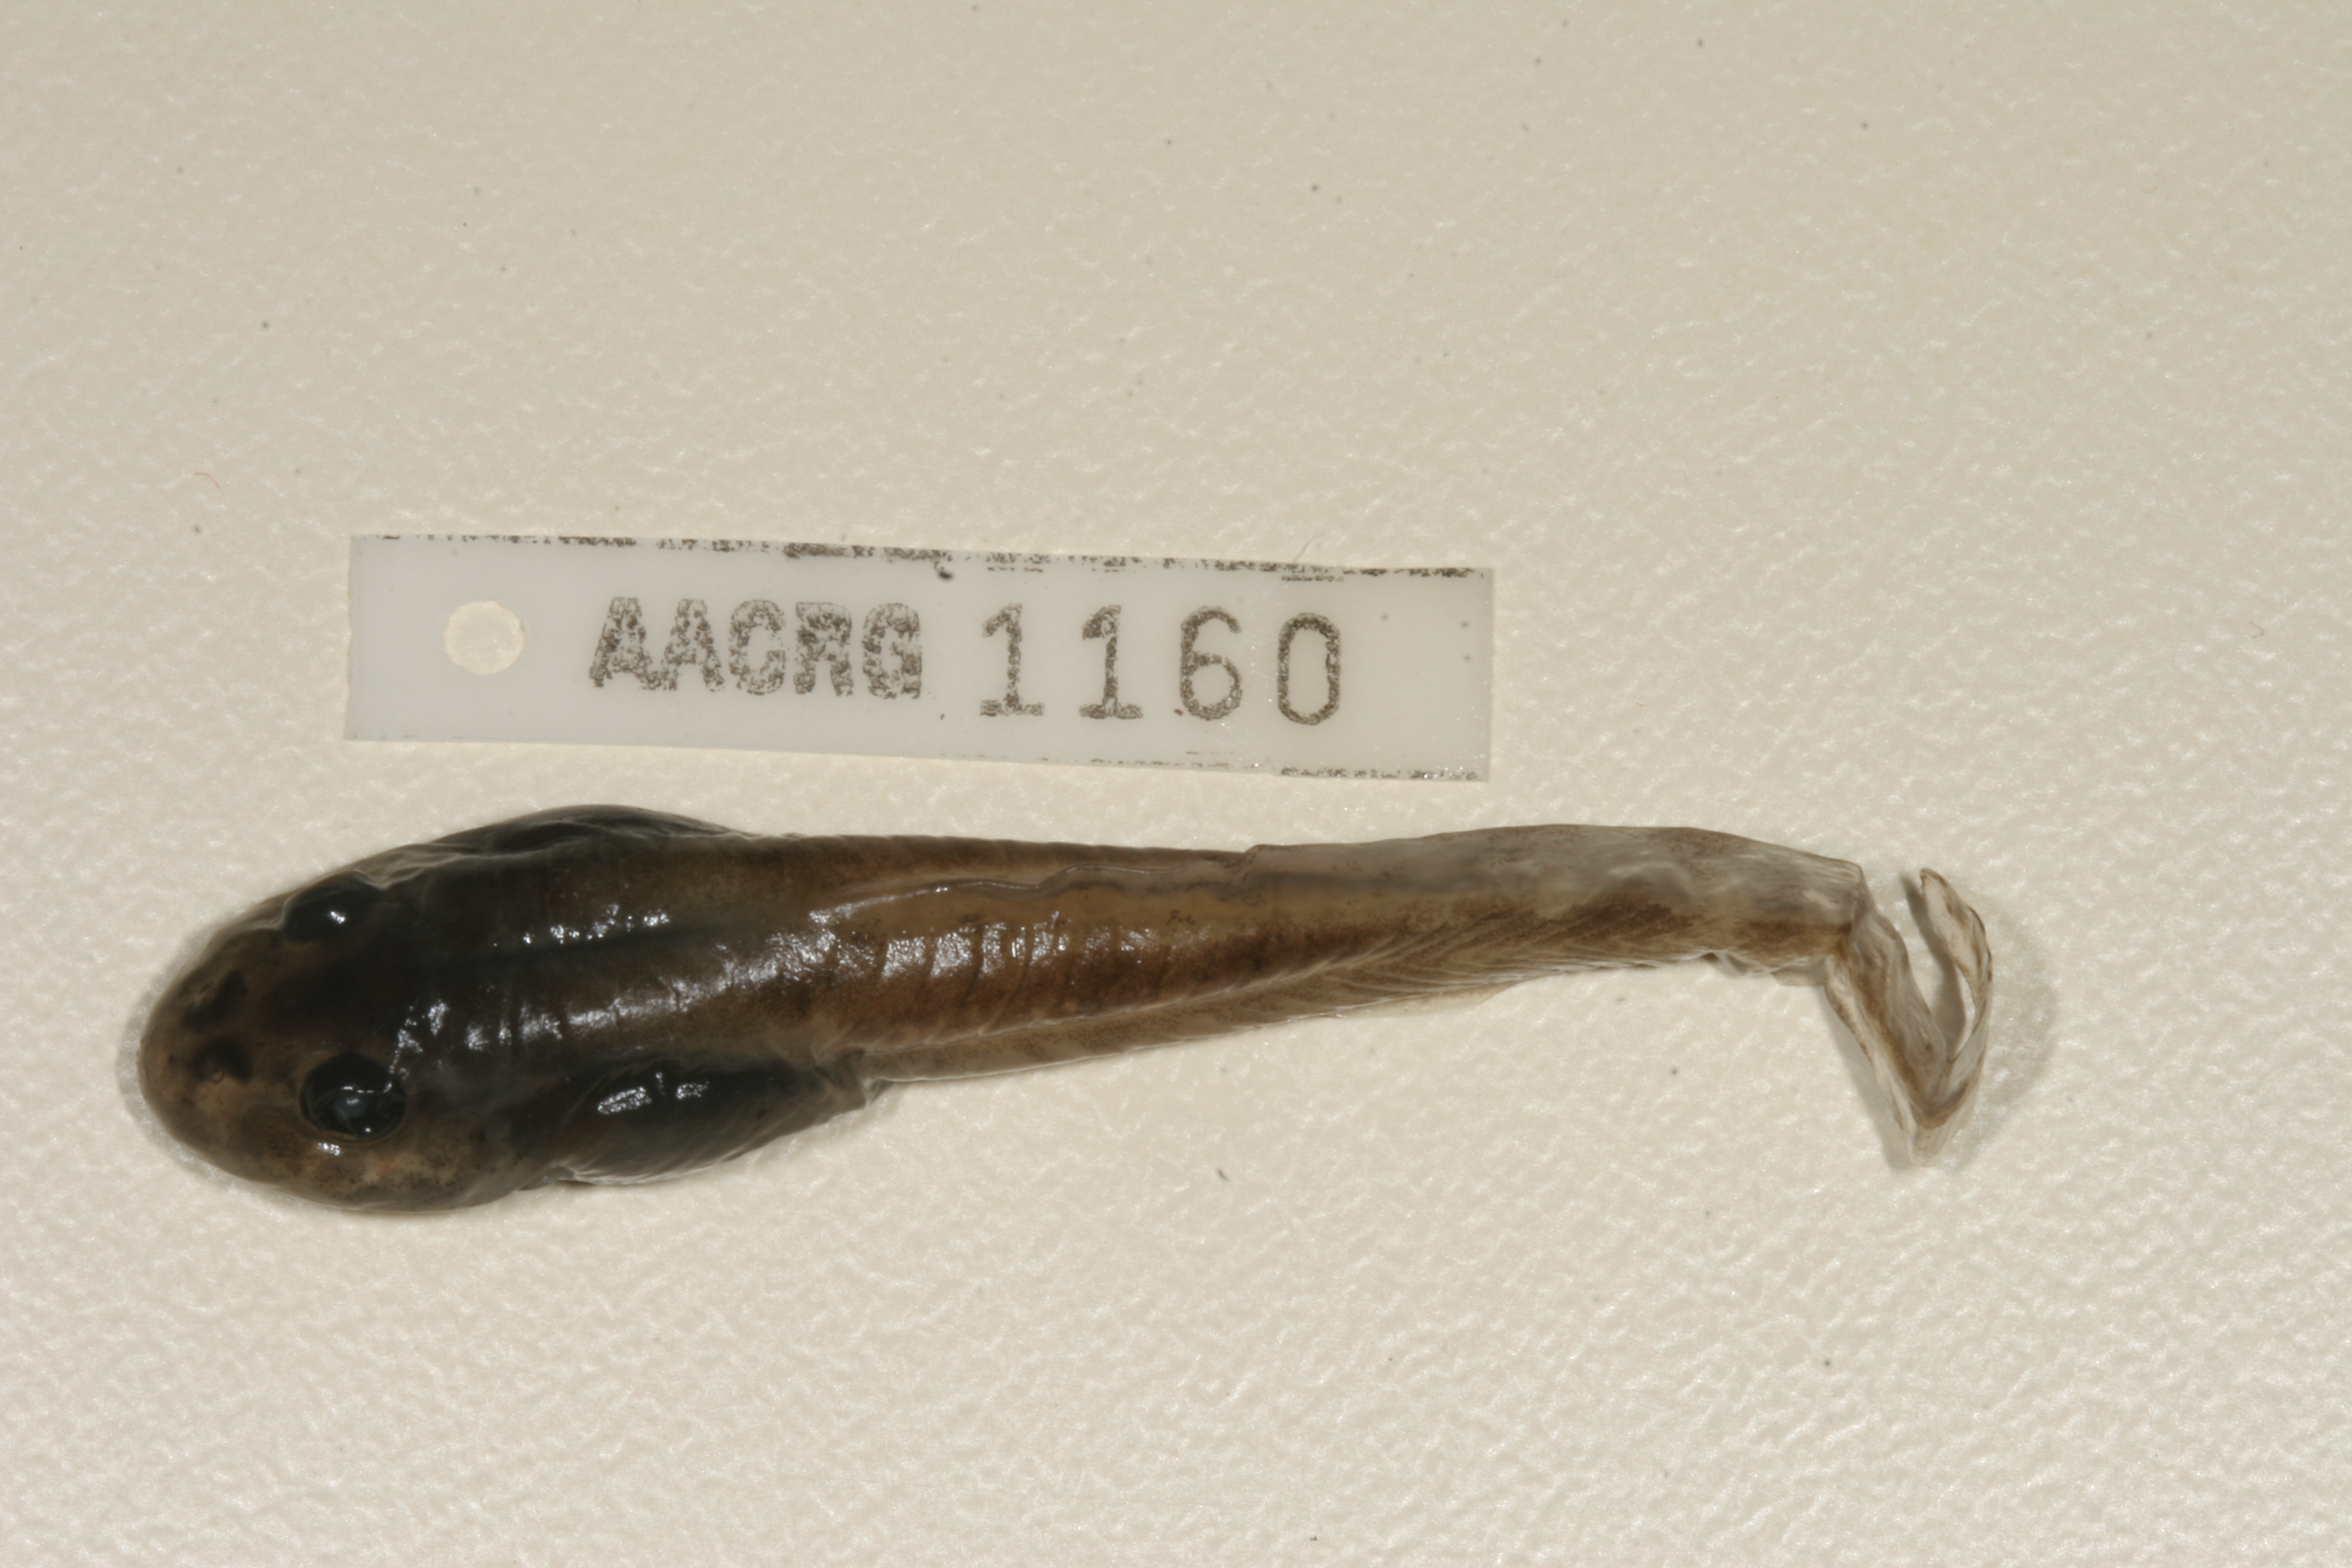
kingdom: Animalia
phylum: Chordata
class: Amphibia
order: Anura
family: Pyxicephalidae
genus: Amietia
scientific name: Amietia fuscigula
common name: Cape rana
